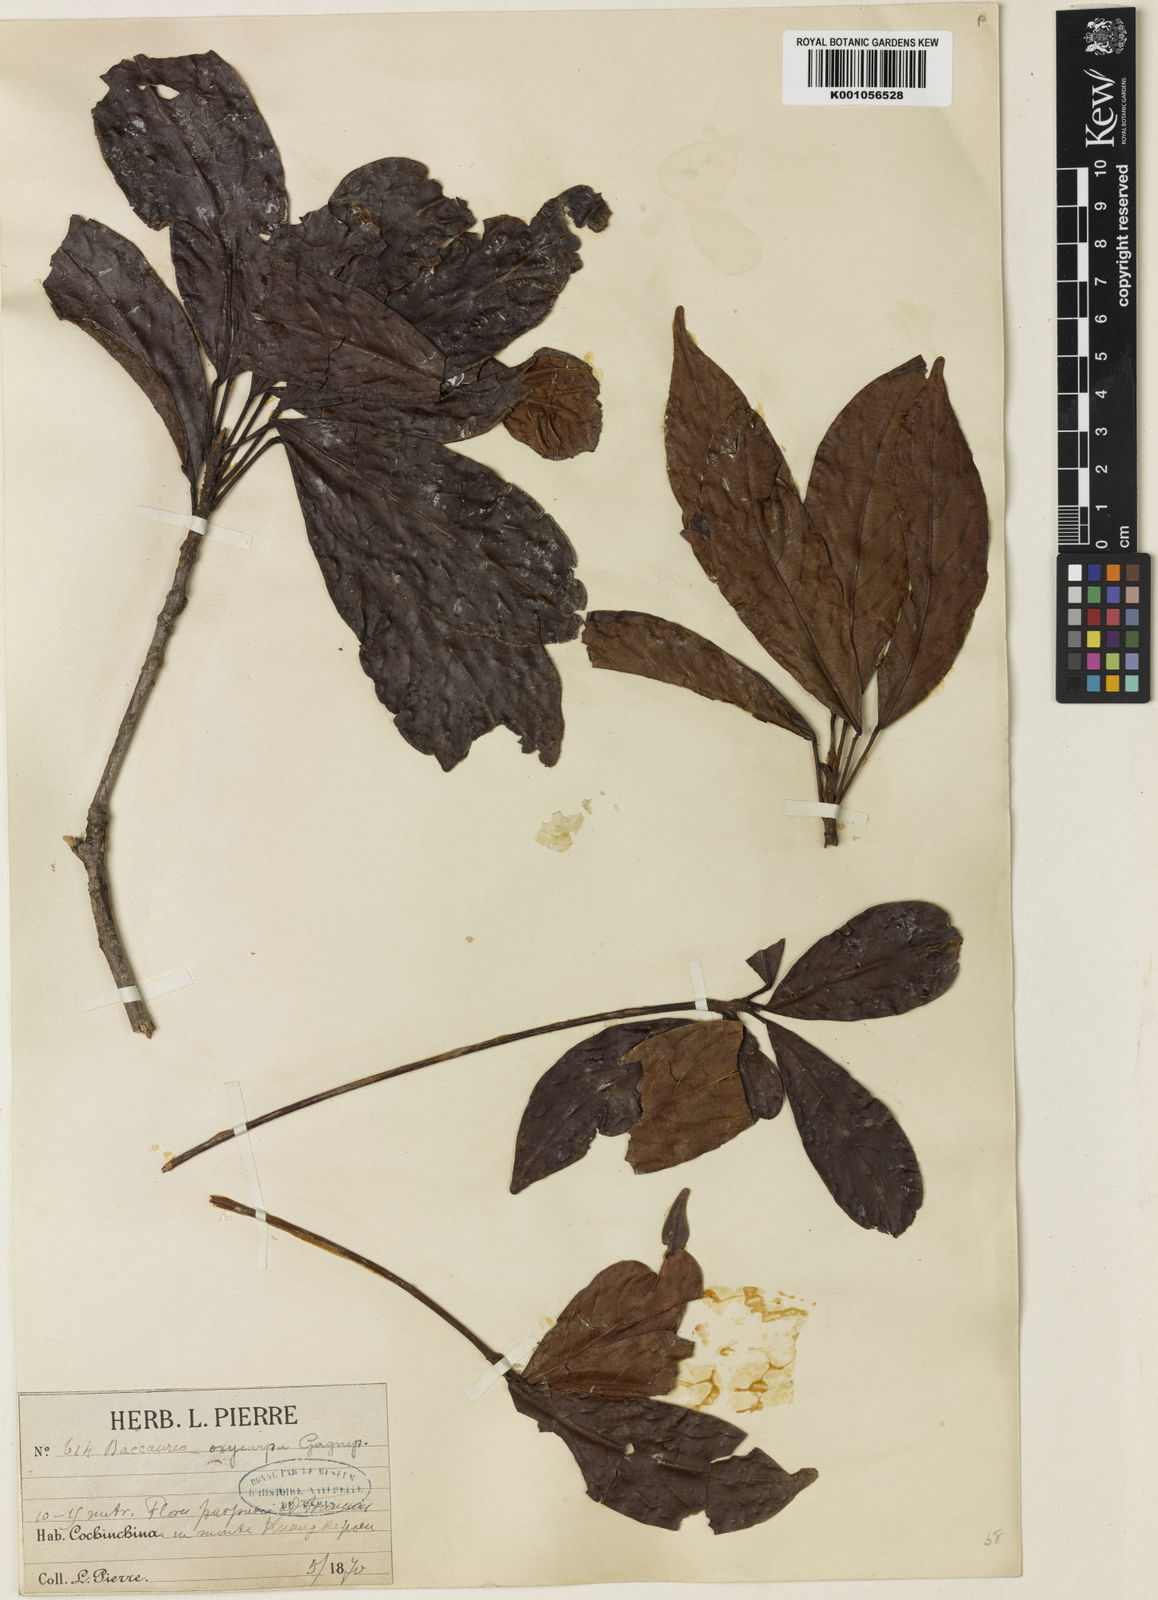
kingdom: Plantae
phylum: Tracheophyta
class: Magnoliopsida
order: Malpighiales
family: Phyllanthaceae
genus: Baccaurea
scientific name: Baccaurea ramiflora
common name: Baccaurea
